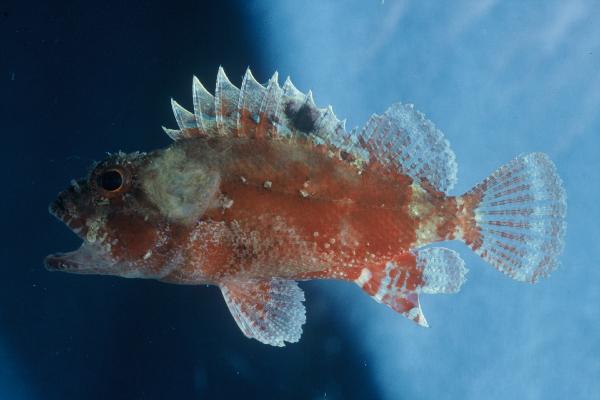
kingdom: Animalia
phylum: Chordata
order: Scorpaeniformes
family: Scorpaenidae
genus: Parascorpaena
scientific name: Parascorpaena mcadamsi
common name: Ocellated scorpionfish
